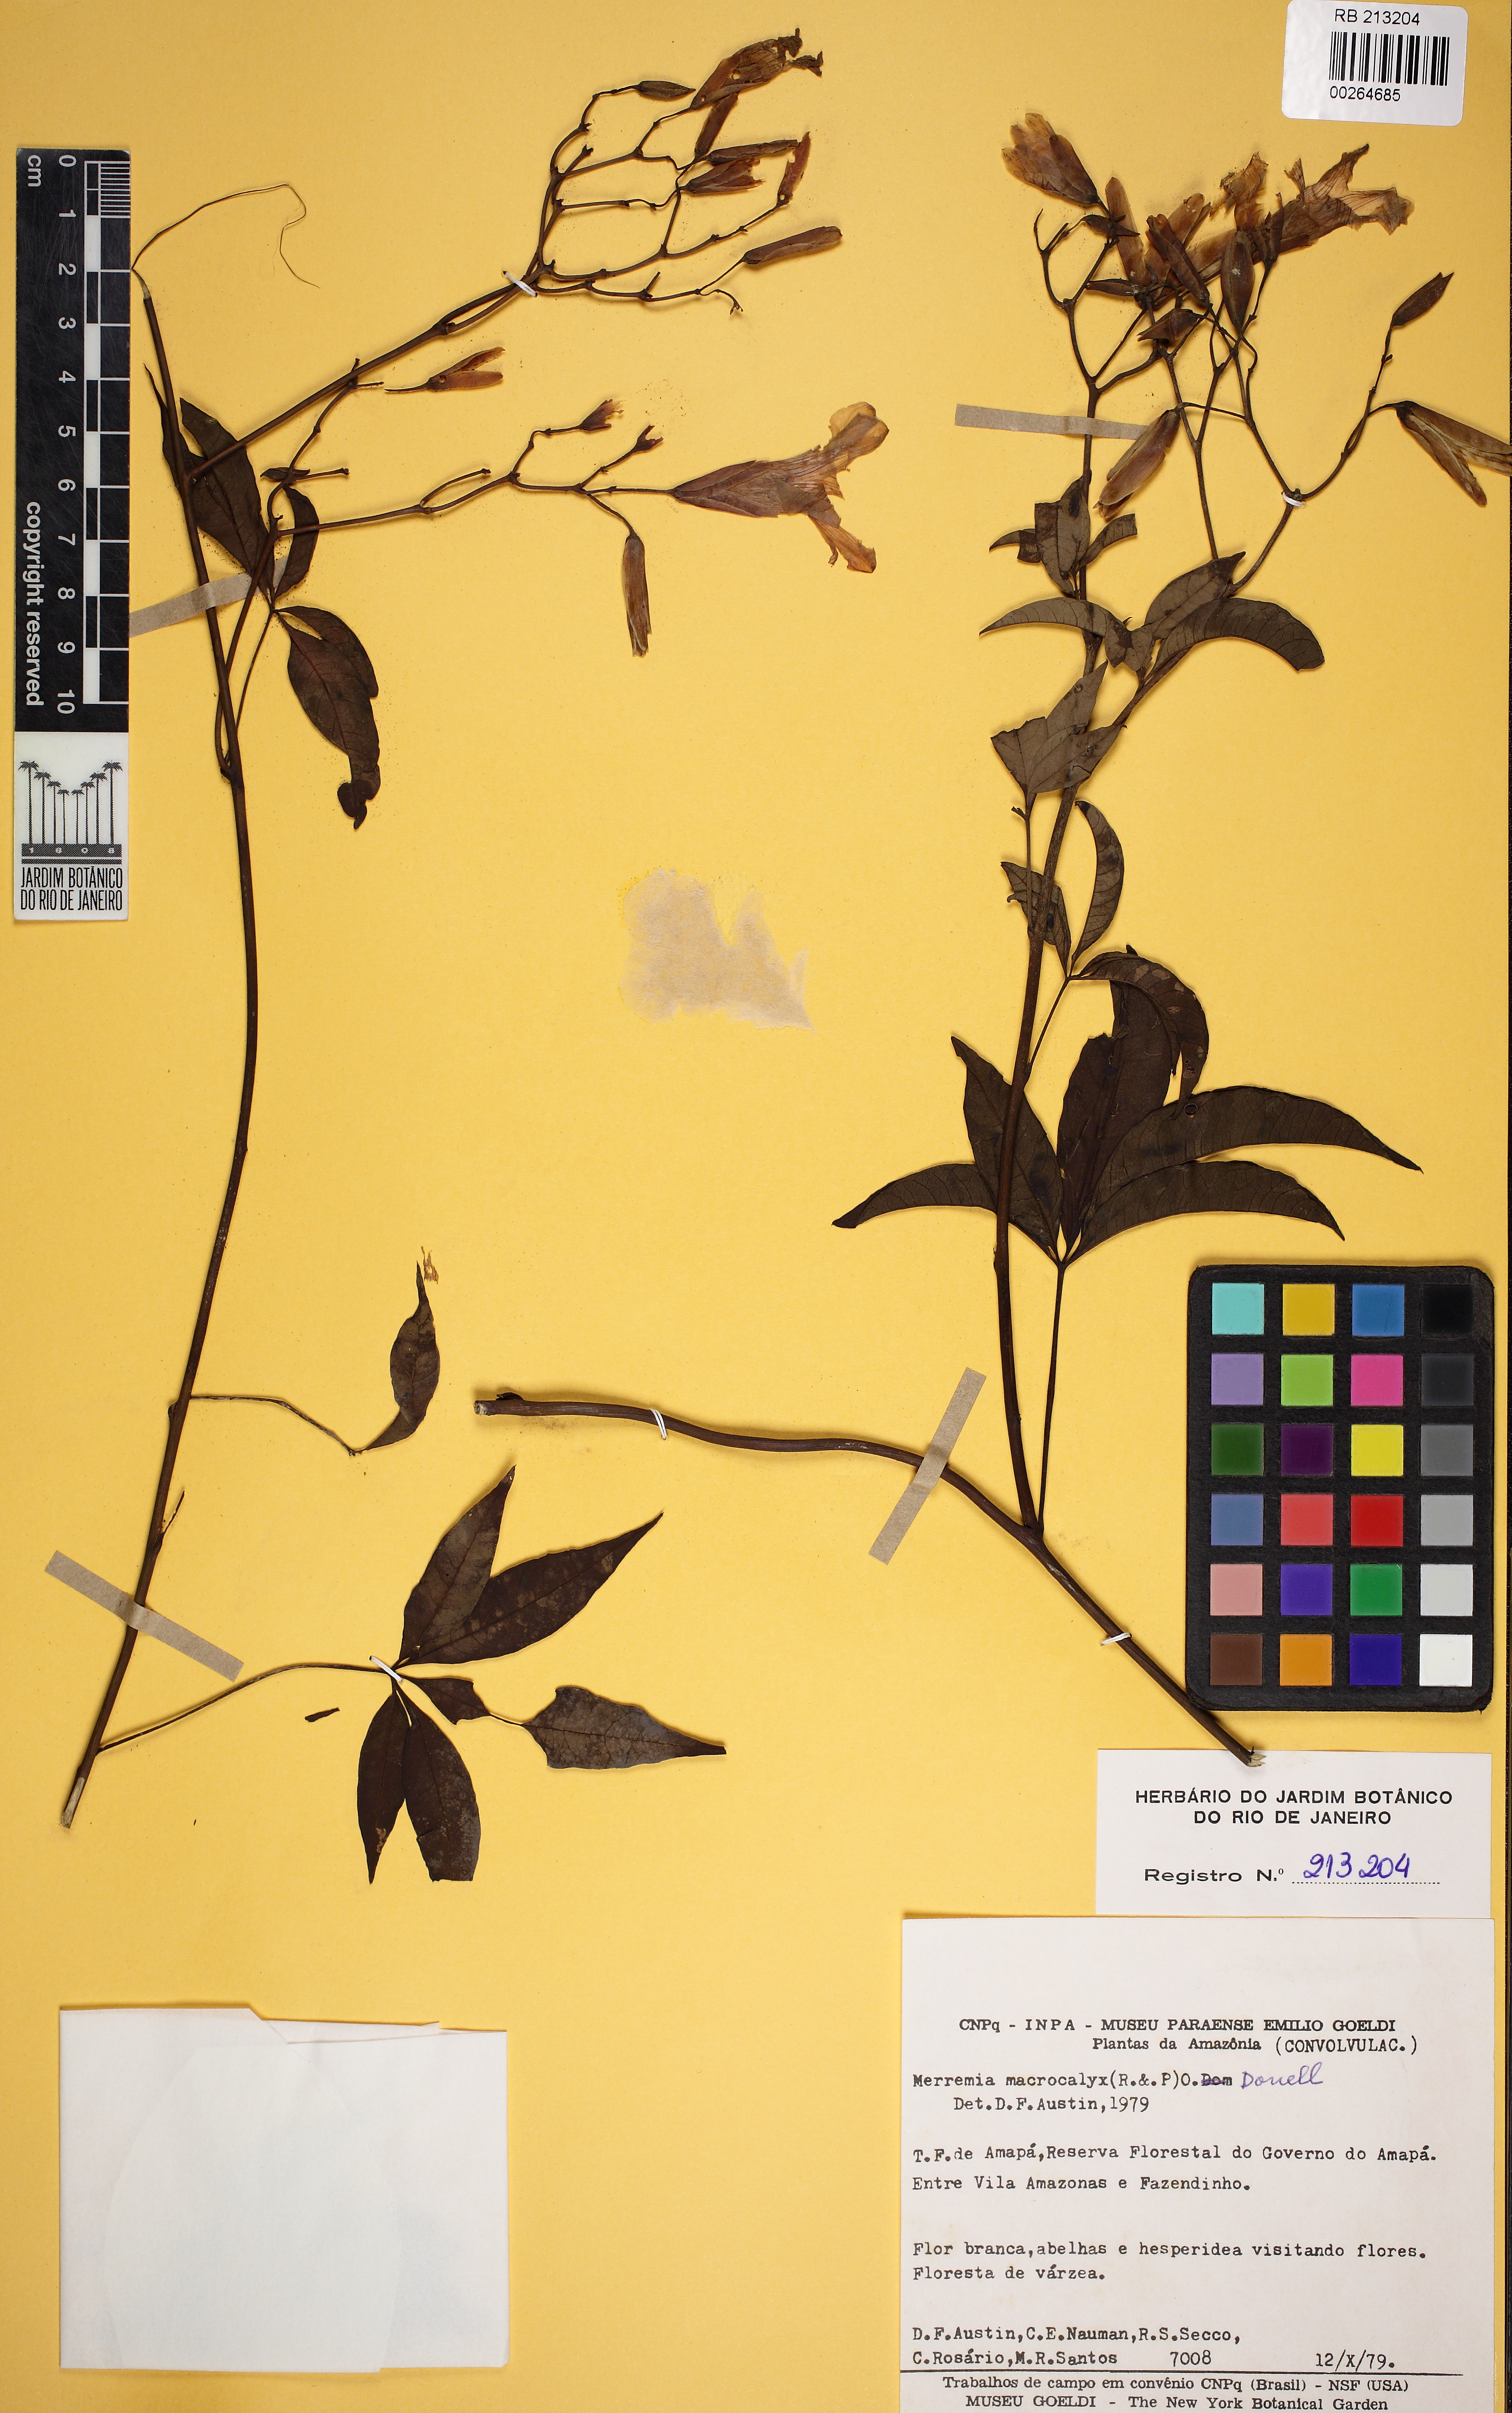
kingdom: Plantae
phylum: Tracheophyta
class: Magnoliopsida
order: Solanales
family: Convolvulaceae
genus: Distimake
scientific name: Distimake macrocalyx
